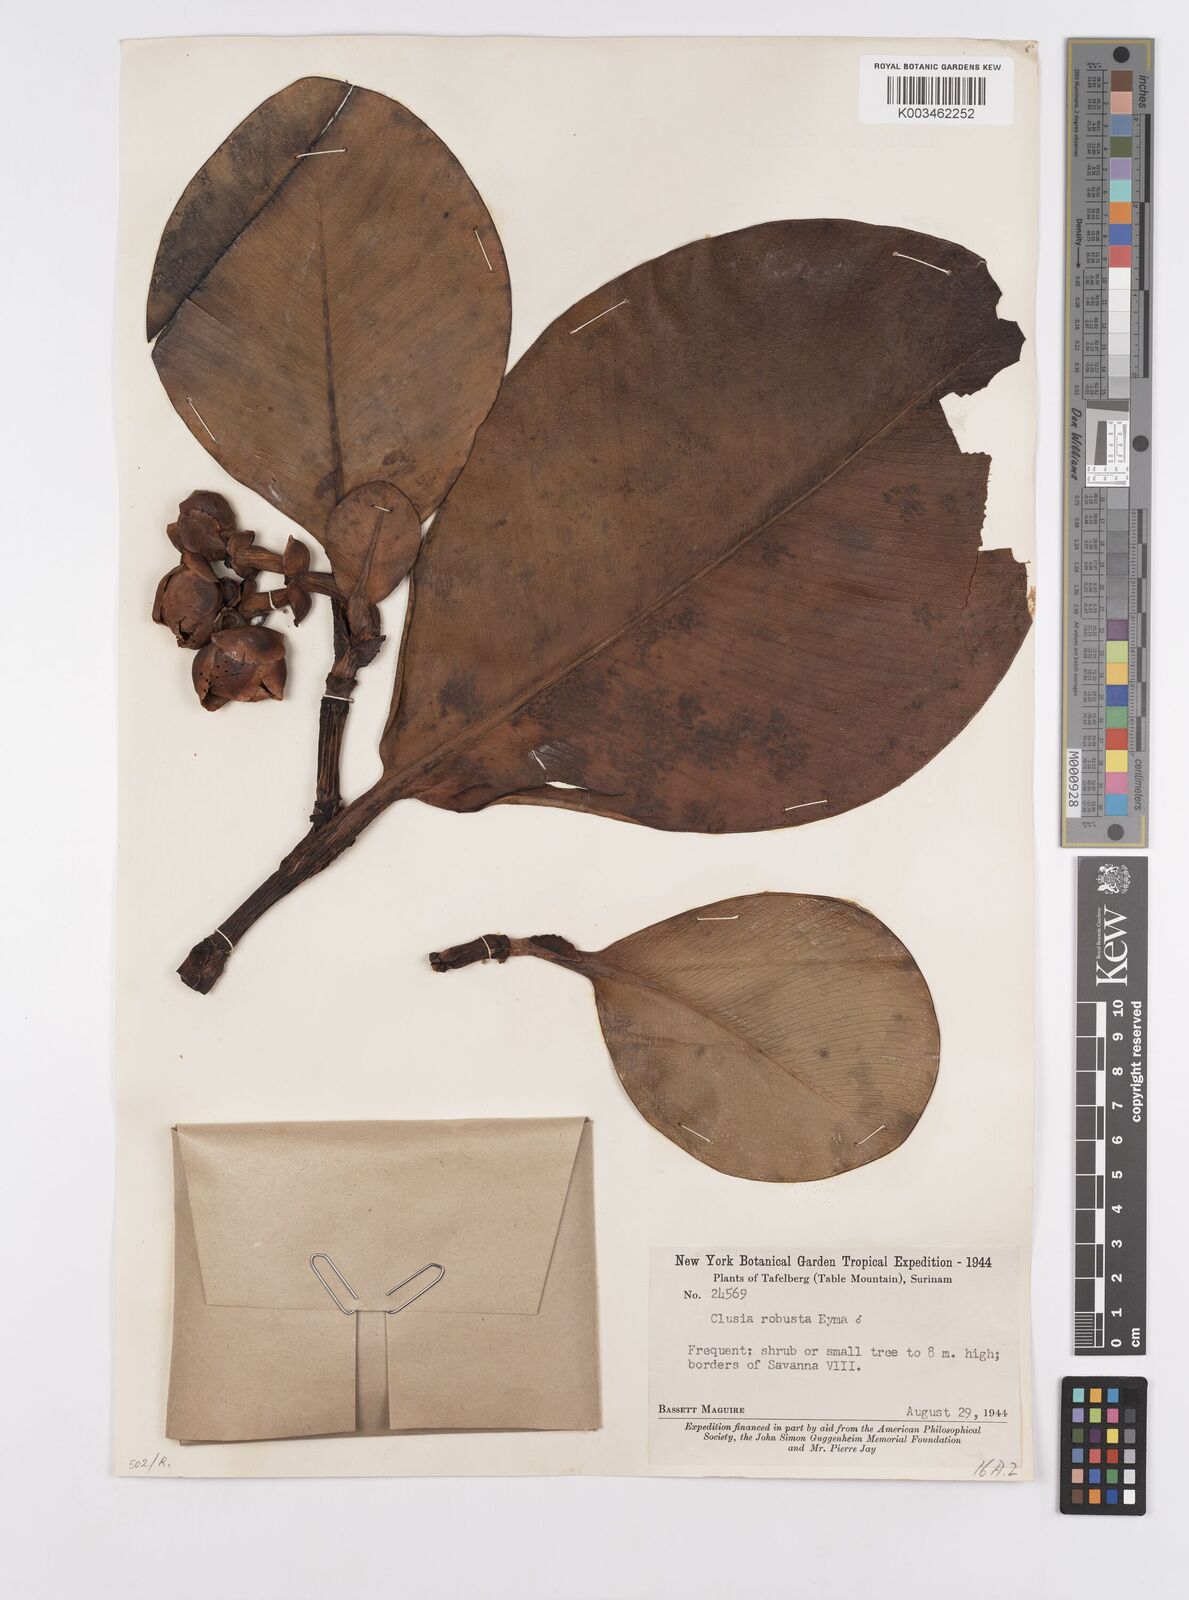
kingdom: Plantae
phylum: Tracheophyta
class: Magnoliopsida
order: Malpighiales
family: Clusiaceae
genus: Clusia
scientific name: Clusia robusta
